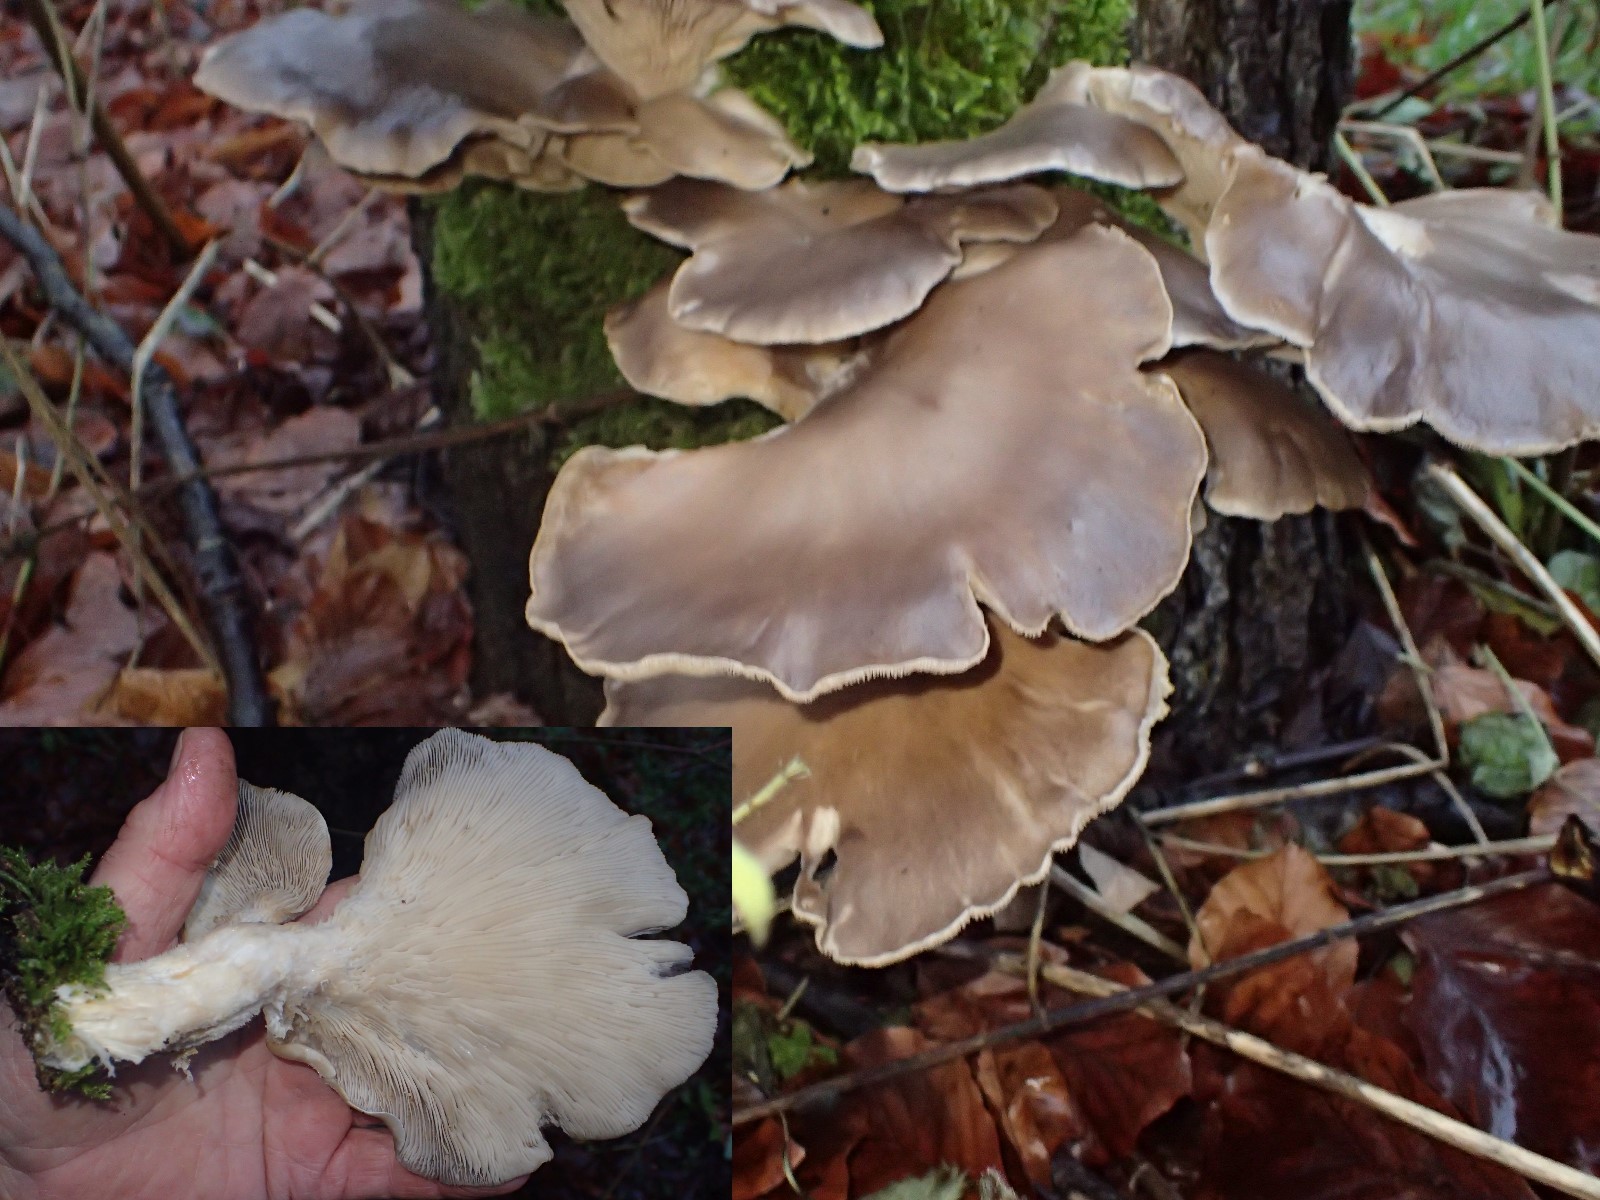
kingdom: Fungi
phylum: Basidiomycota
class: Agaricomycetes
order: Agaricales
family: Pleurotaceae
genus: Pleurotus
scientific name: Pleurotus ostreatus
